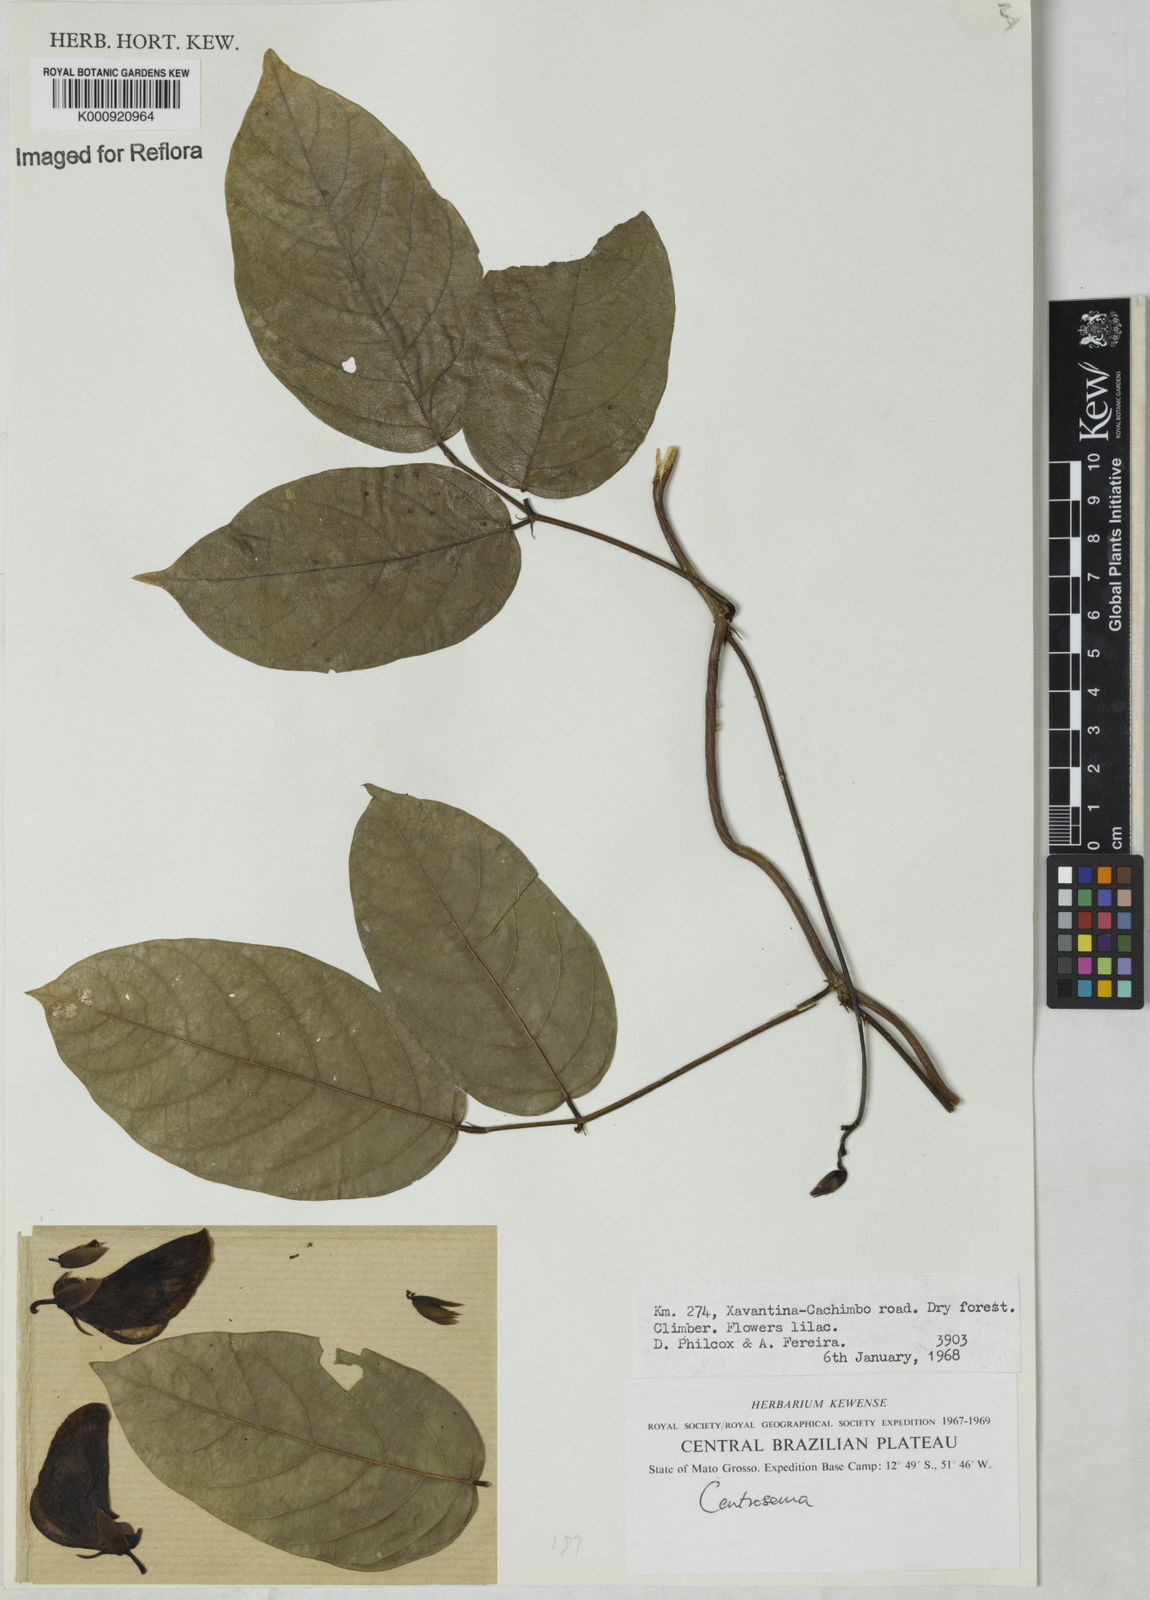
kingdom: Plantae
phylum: Tracheophyta
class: Magnoliopsida
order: Fabales
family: Fabaceae
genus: Centrosema
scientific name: Centrosema
